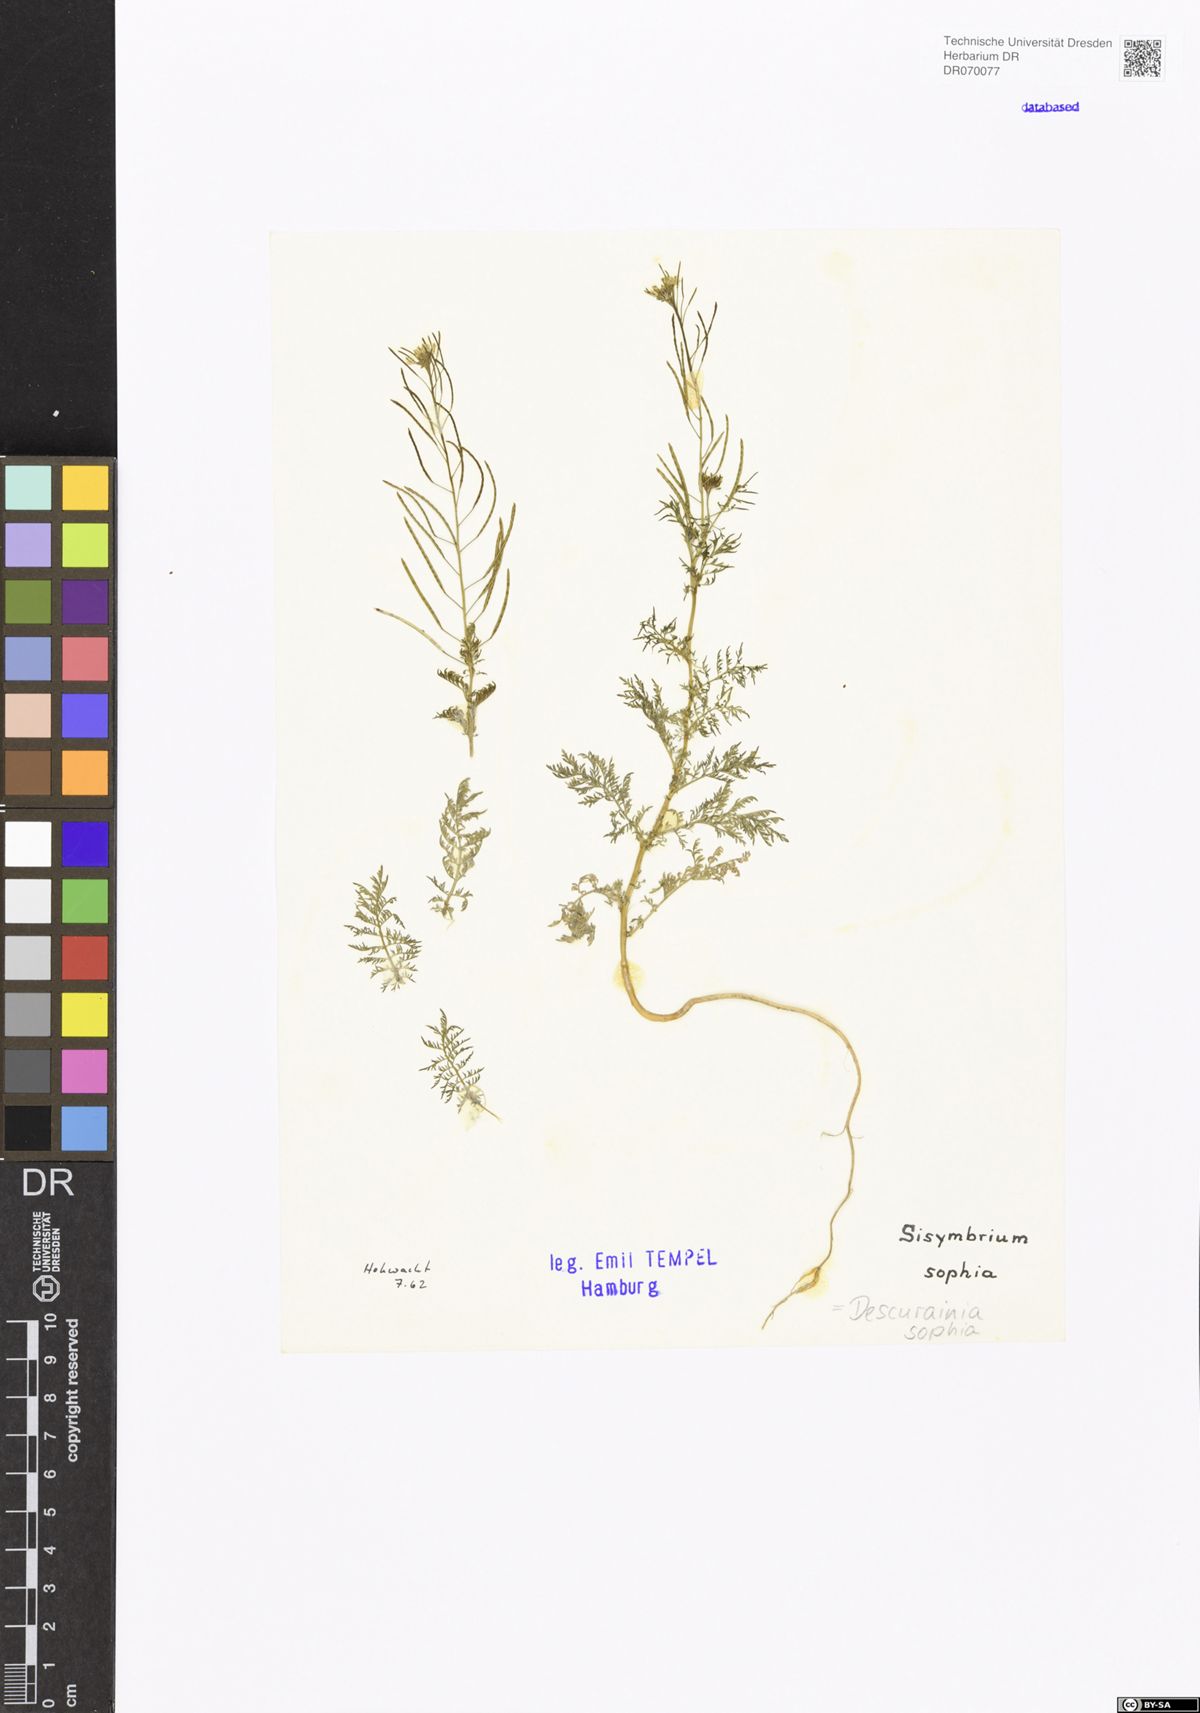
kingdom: Plantae
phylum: Tracheophyta
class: Magnoliopsida
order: Brassicales
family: Brassicaceae
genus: Descurainia
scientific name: Descurainia sophia
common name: Flixweed
